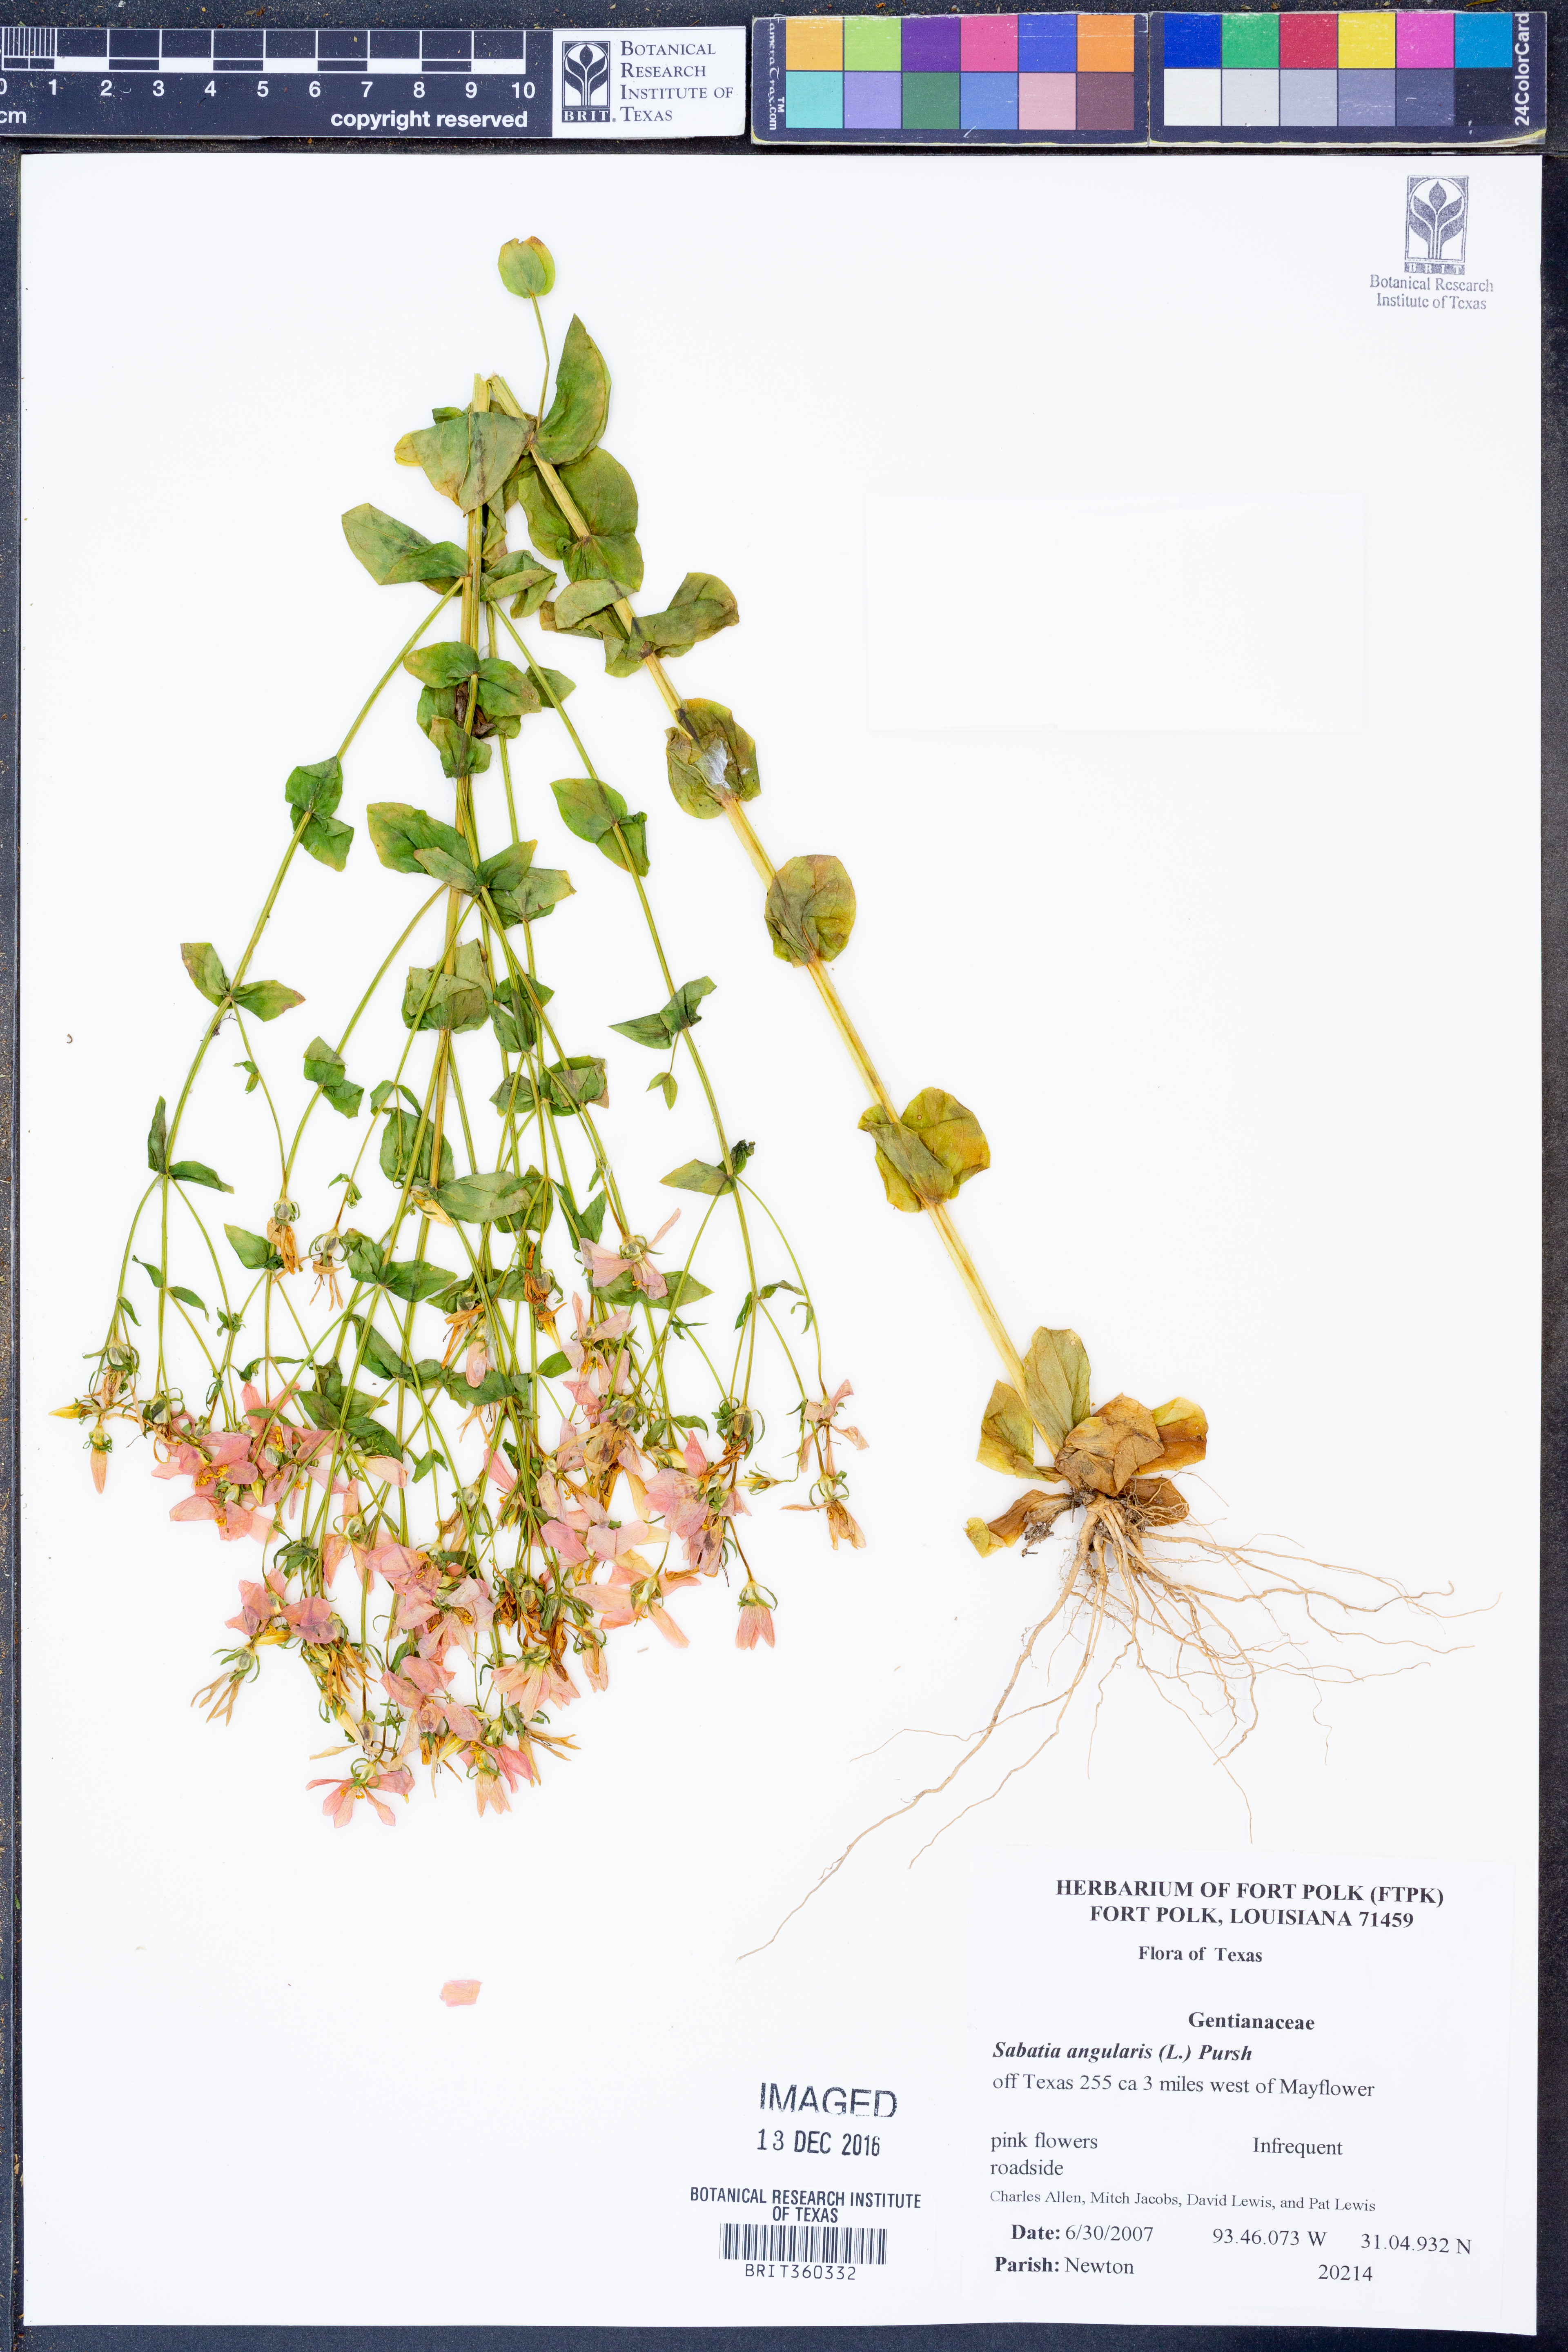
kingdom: Plantae
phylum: Tracheophyta
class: Magnoliopsida
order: Gentianales
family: Gentianaceae
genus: Sabatia
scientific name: Sabatia angularis
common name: Rose-pink
